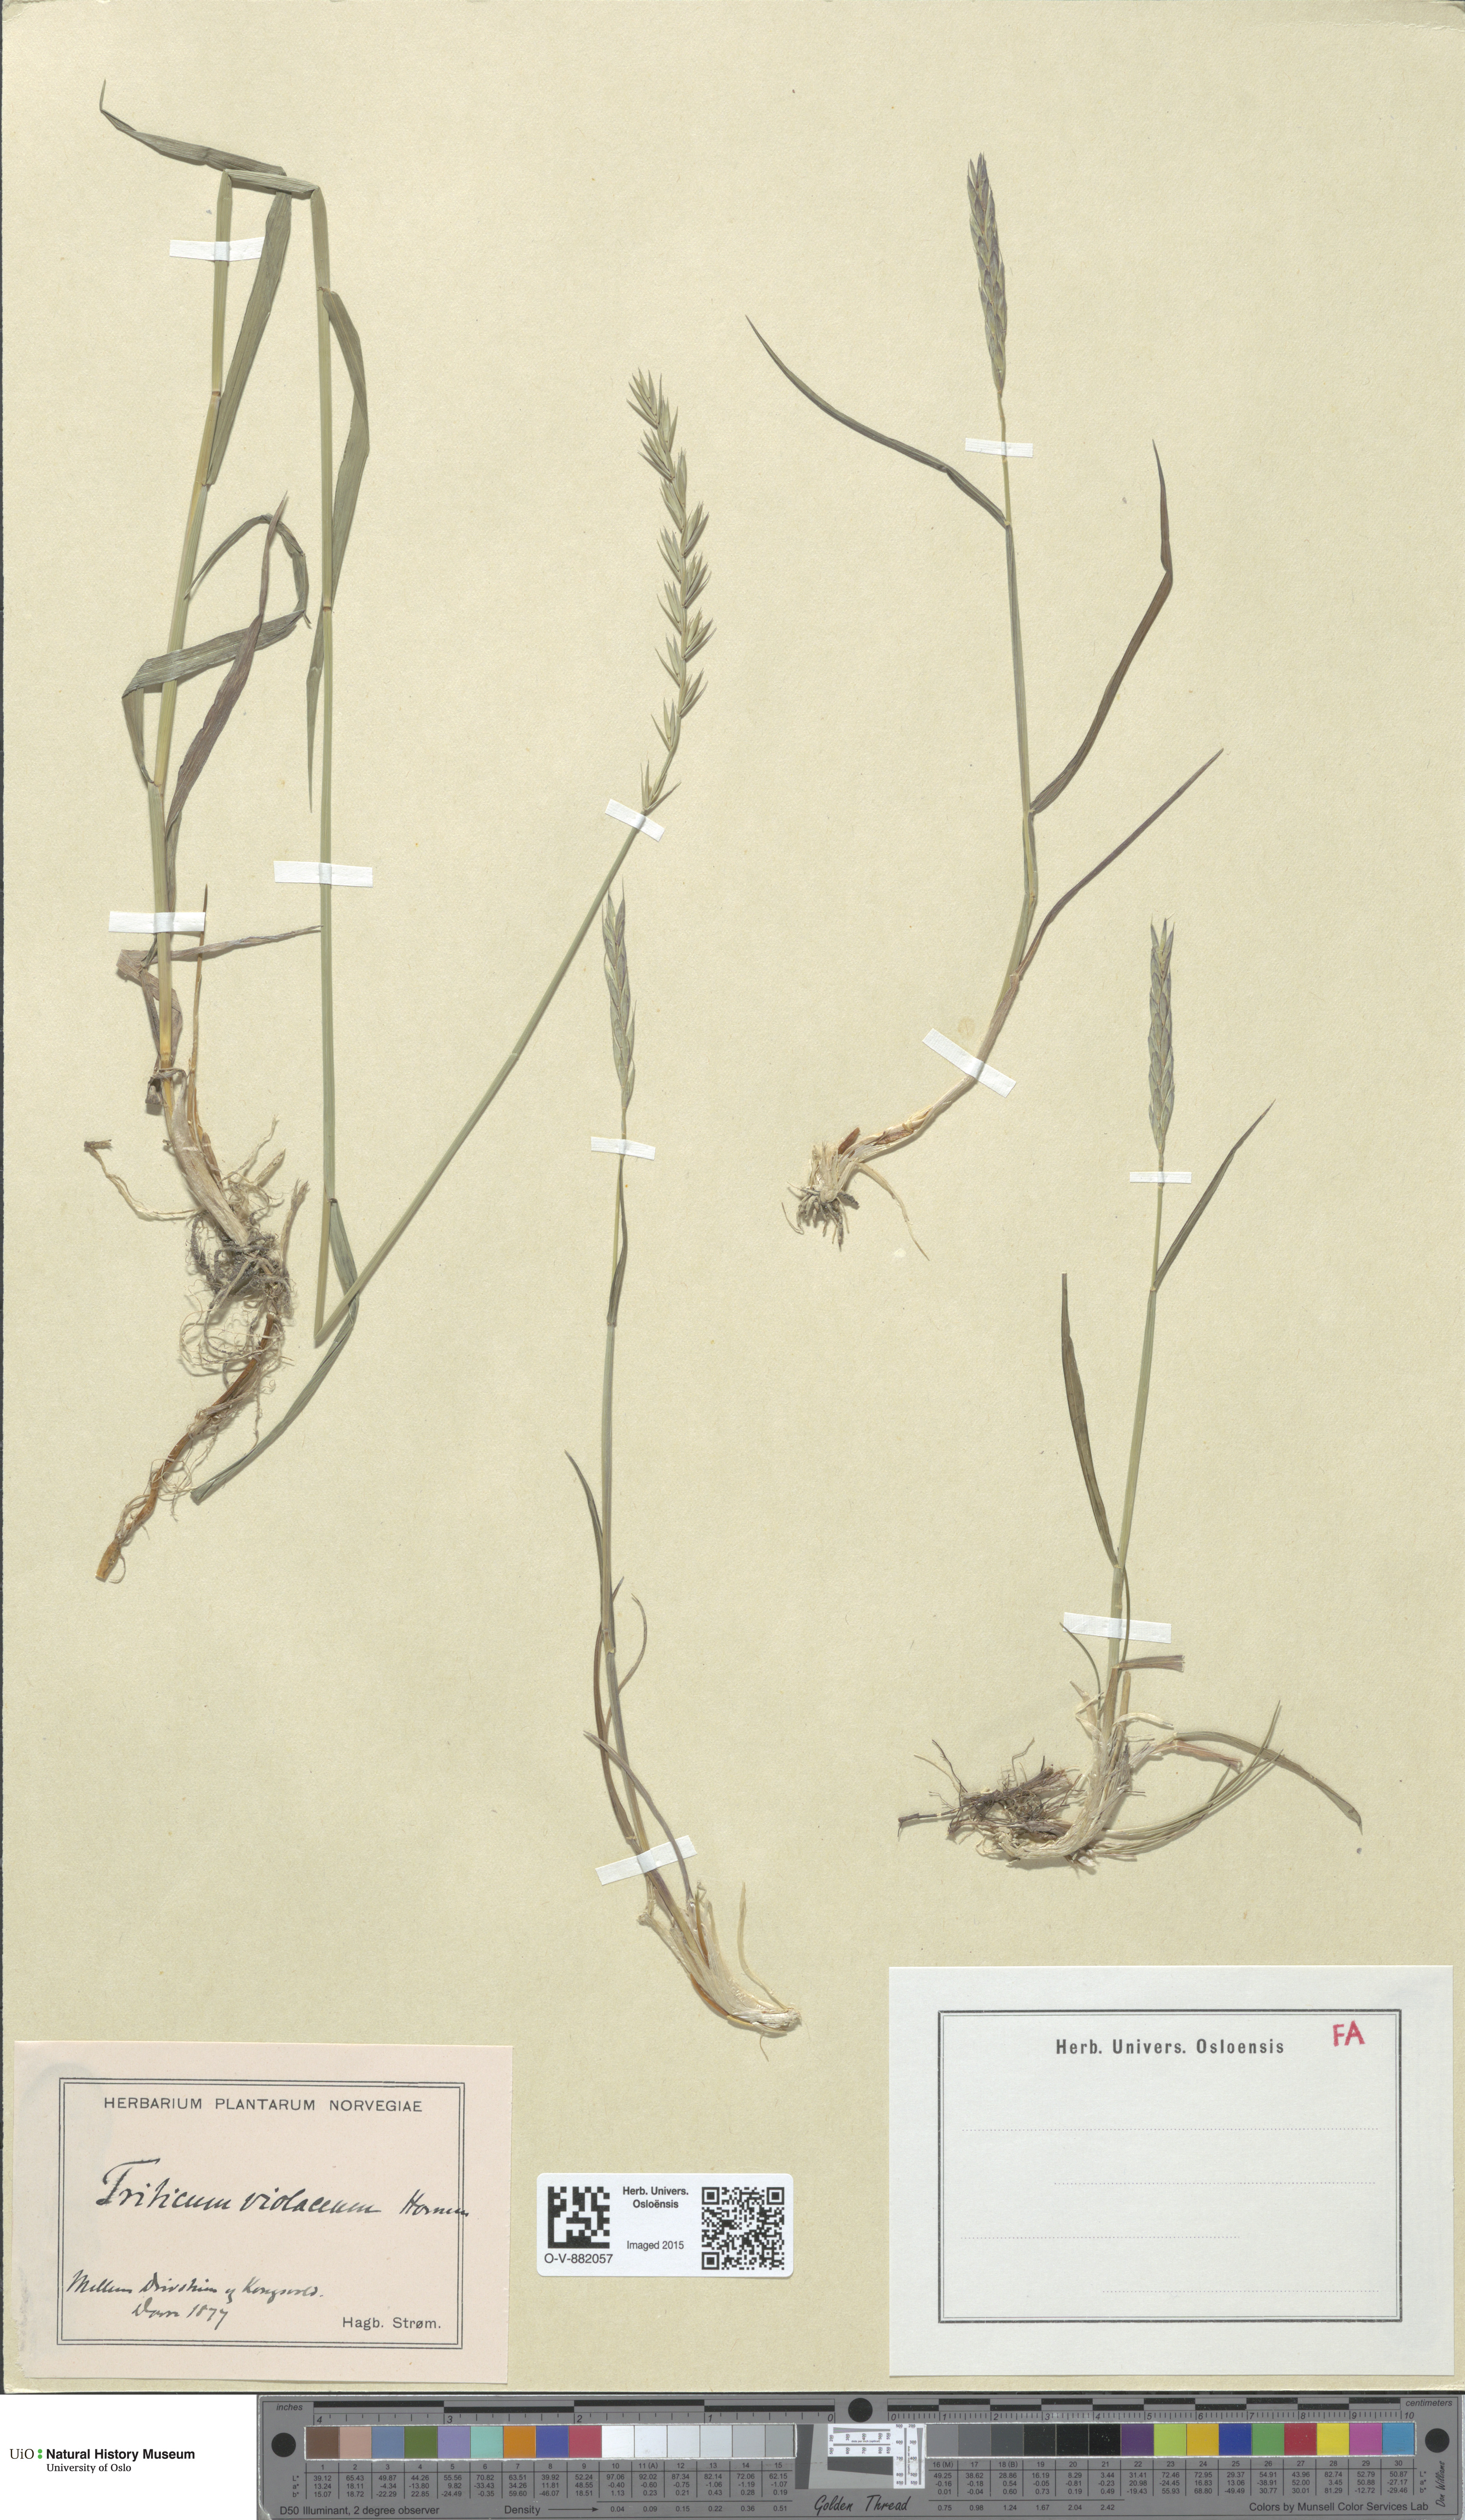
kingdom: Plantae
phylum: Tracheophyta
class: Liliopsida
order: Poales
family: Poaceae
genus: Elymus
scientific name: Elymus violaceus
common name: Arctic wheatgrass
